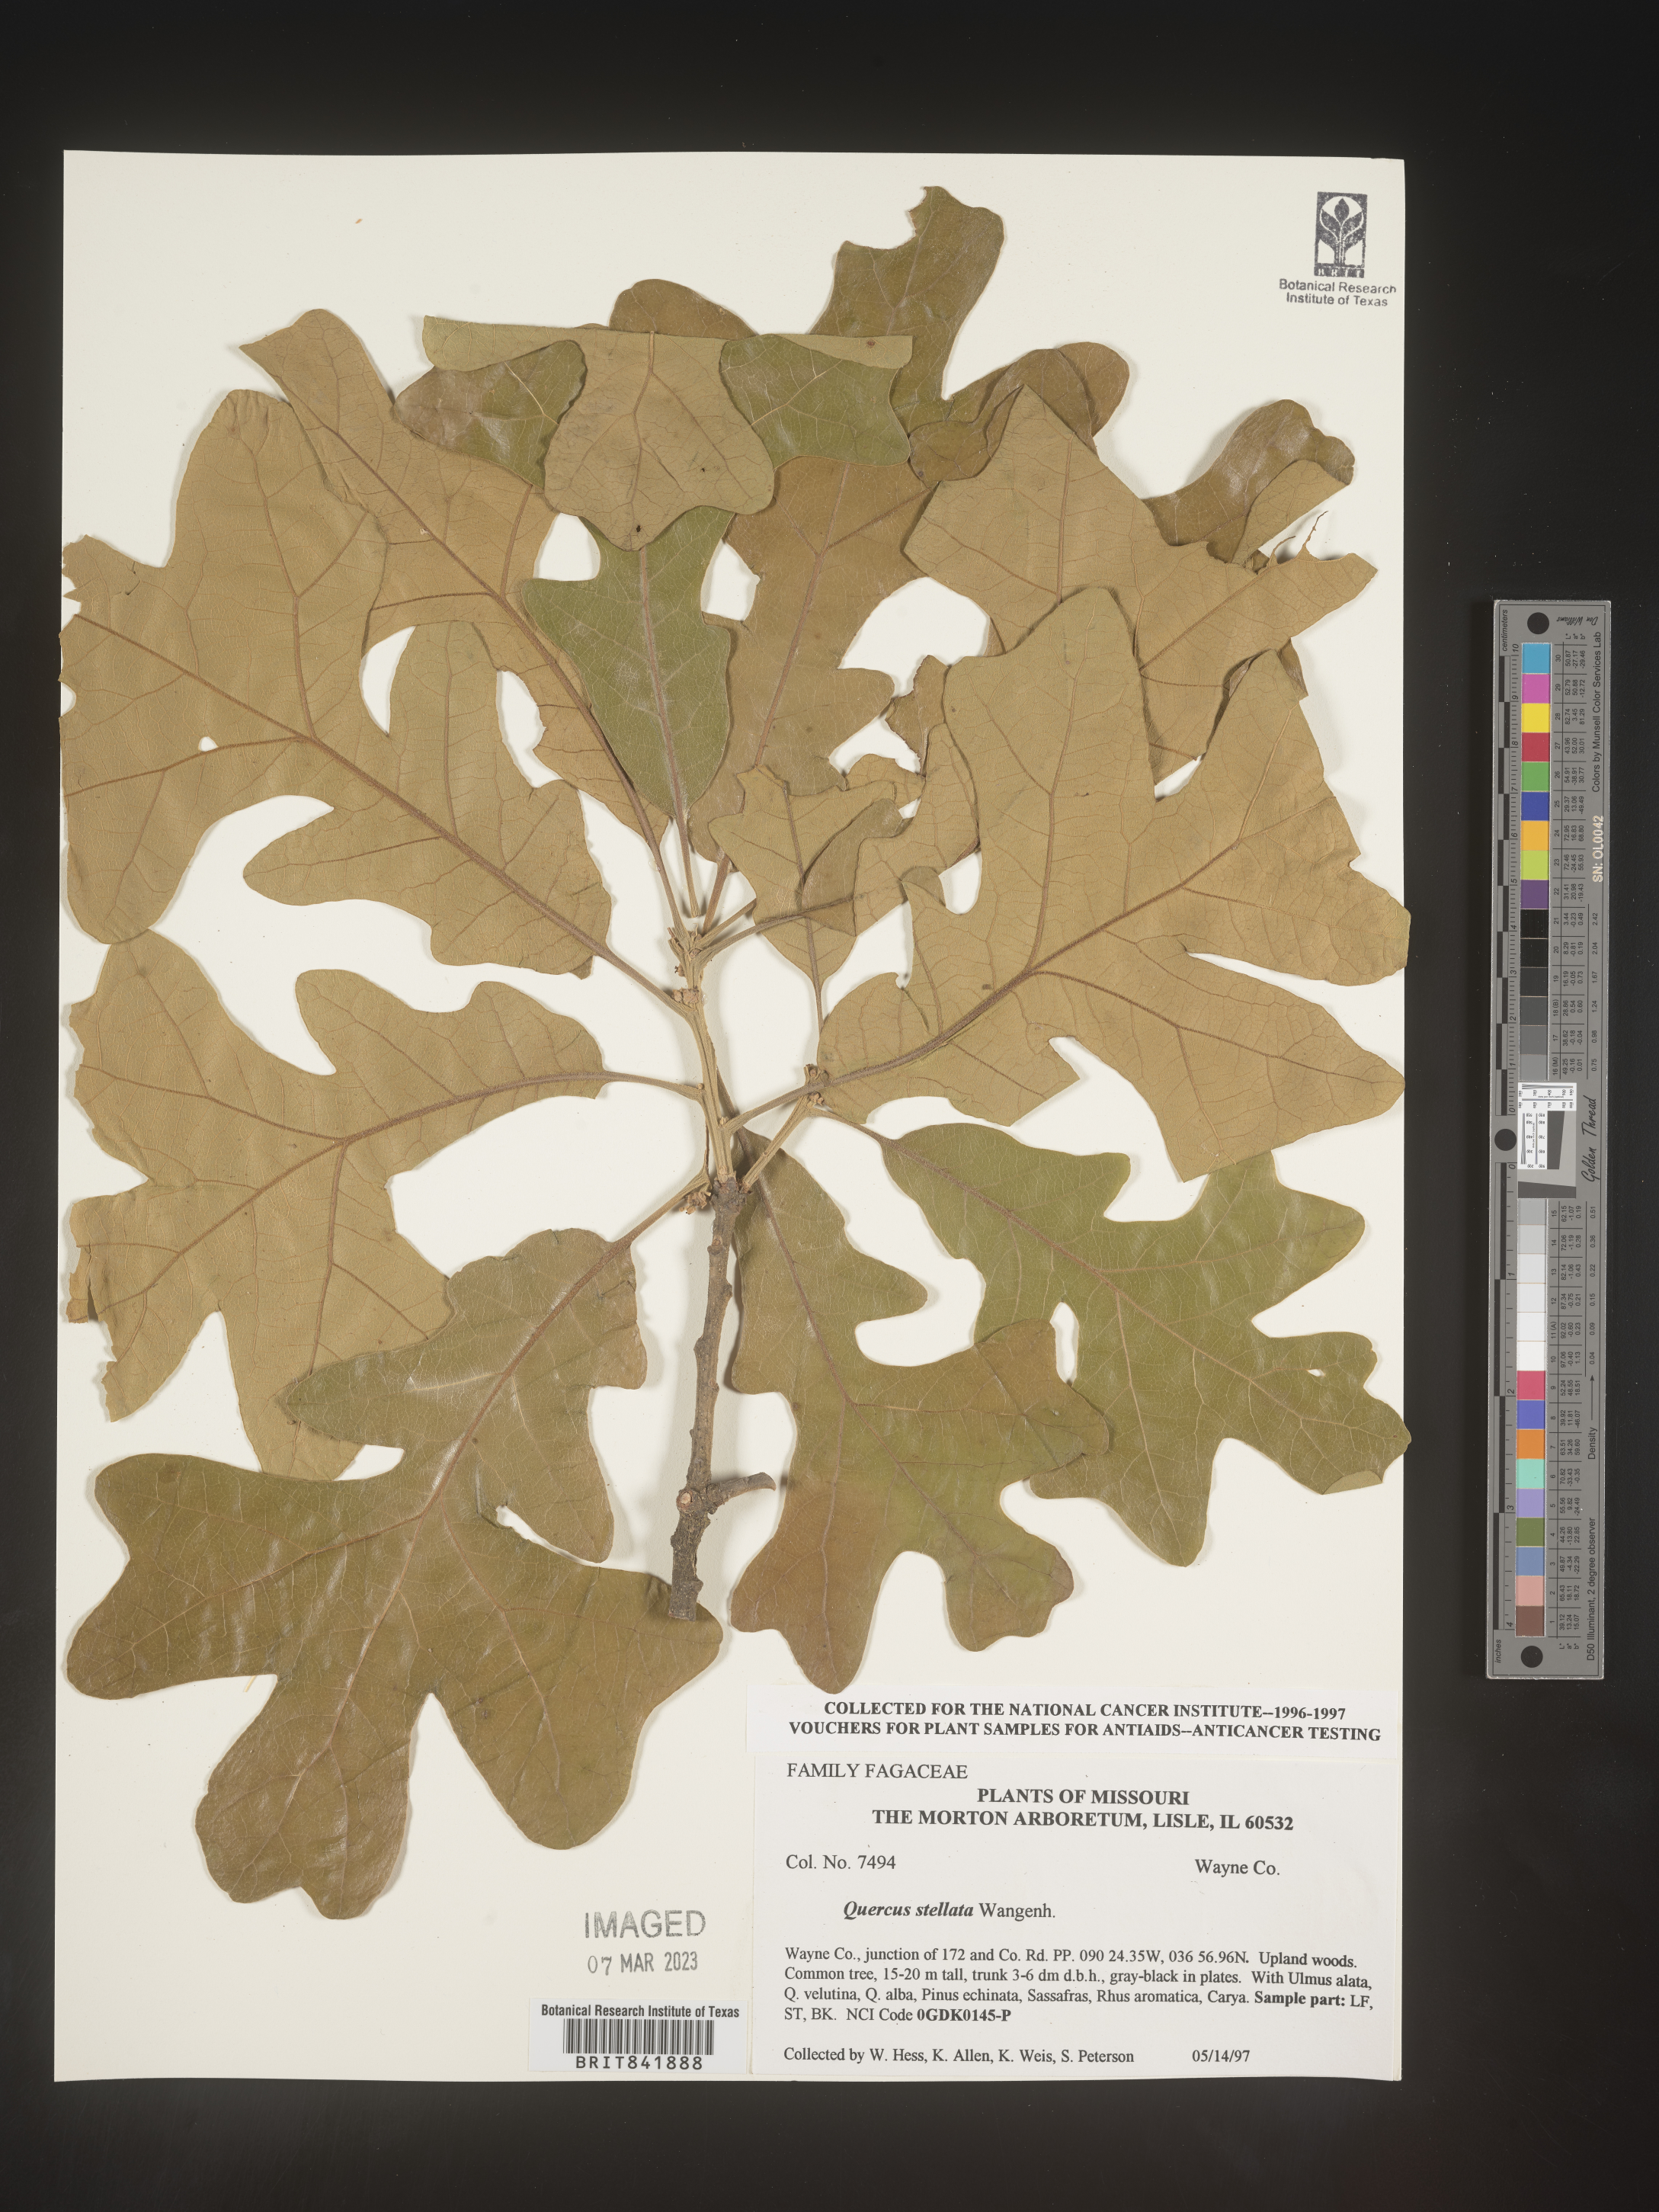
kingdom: Plantae
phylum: Tracheophyta
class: Magnoliopsida
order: Fagales
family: Fagaceae
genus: Quercus
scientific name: Quercus stellata
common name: Post oak
